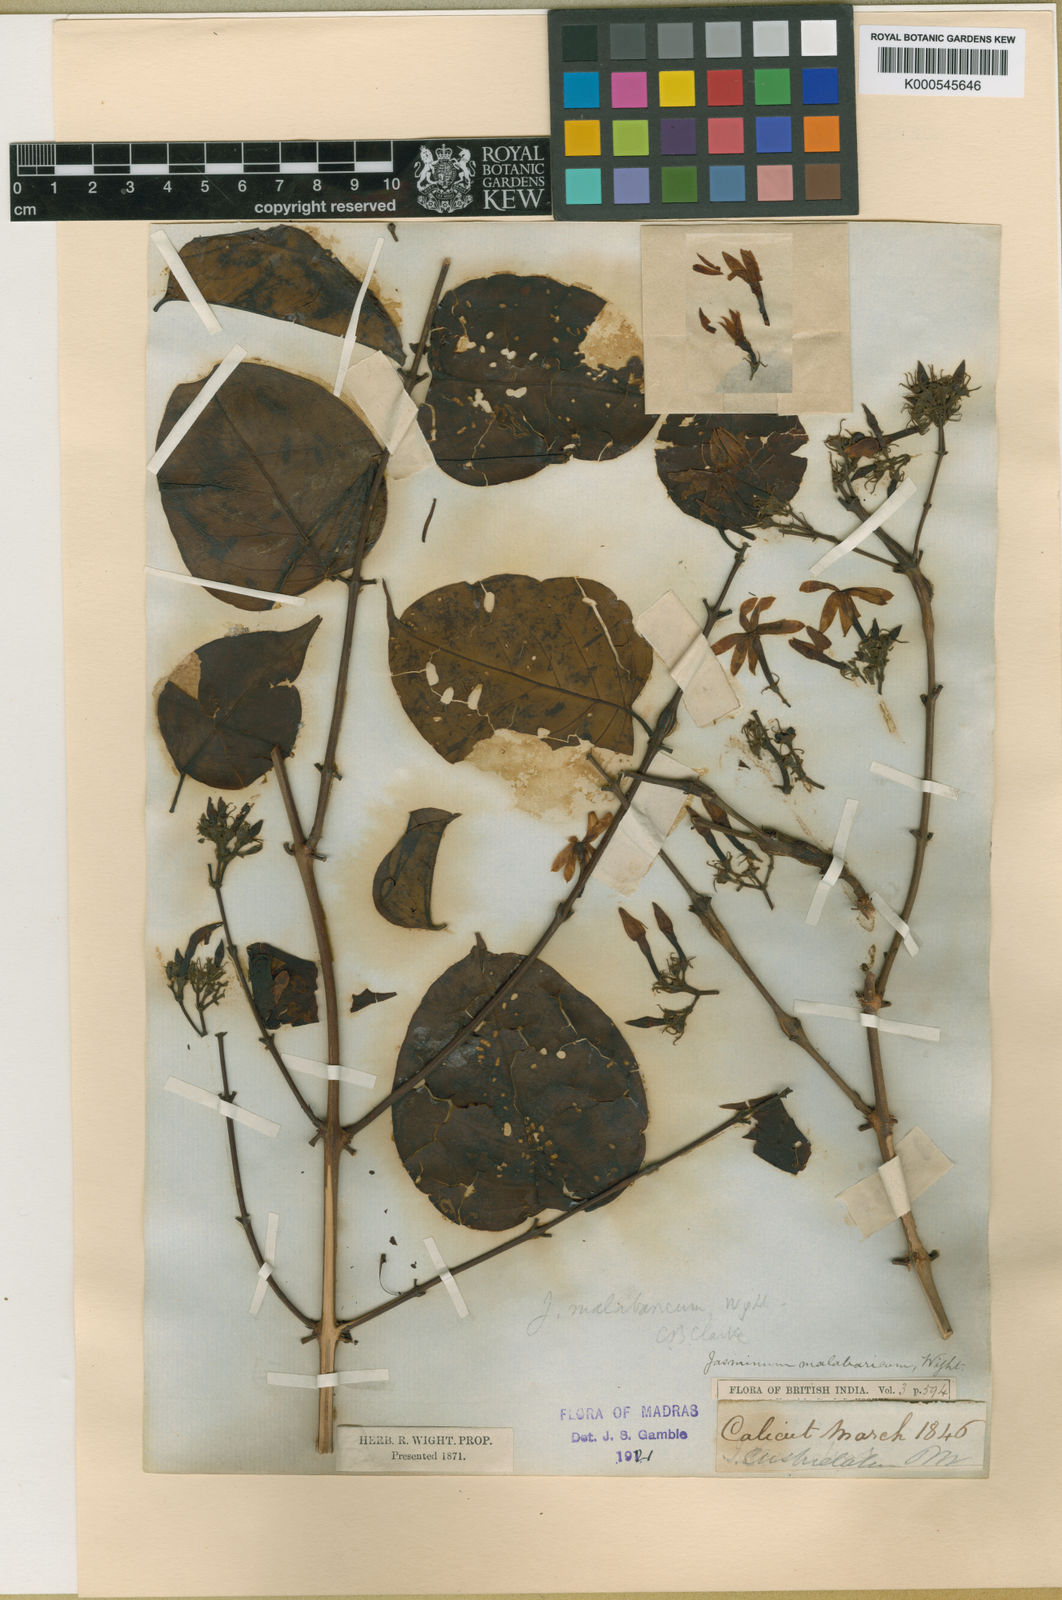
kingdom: Plantae
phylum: Tracheophyta
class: Magnoliopsida
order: Lamiales
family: Oleaceae
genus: Jasminum
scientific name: Jasminum malabaricum
